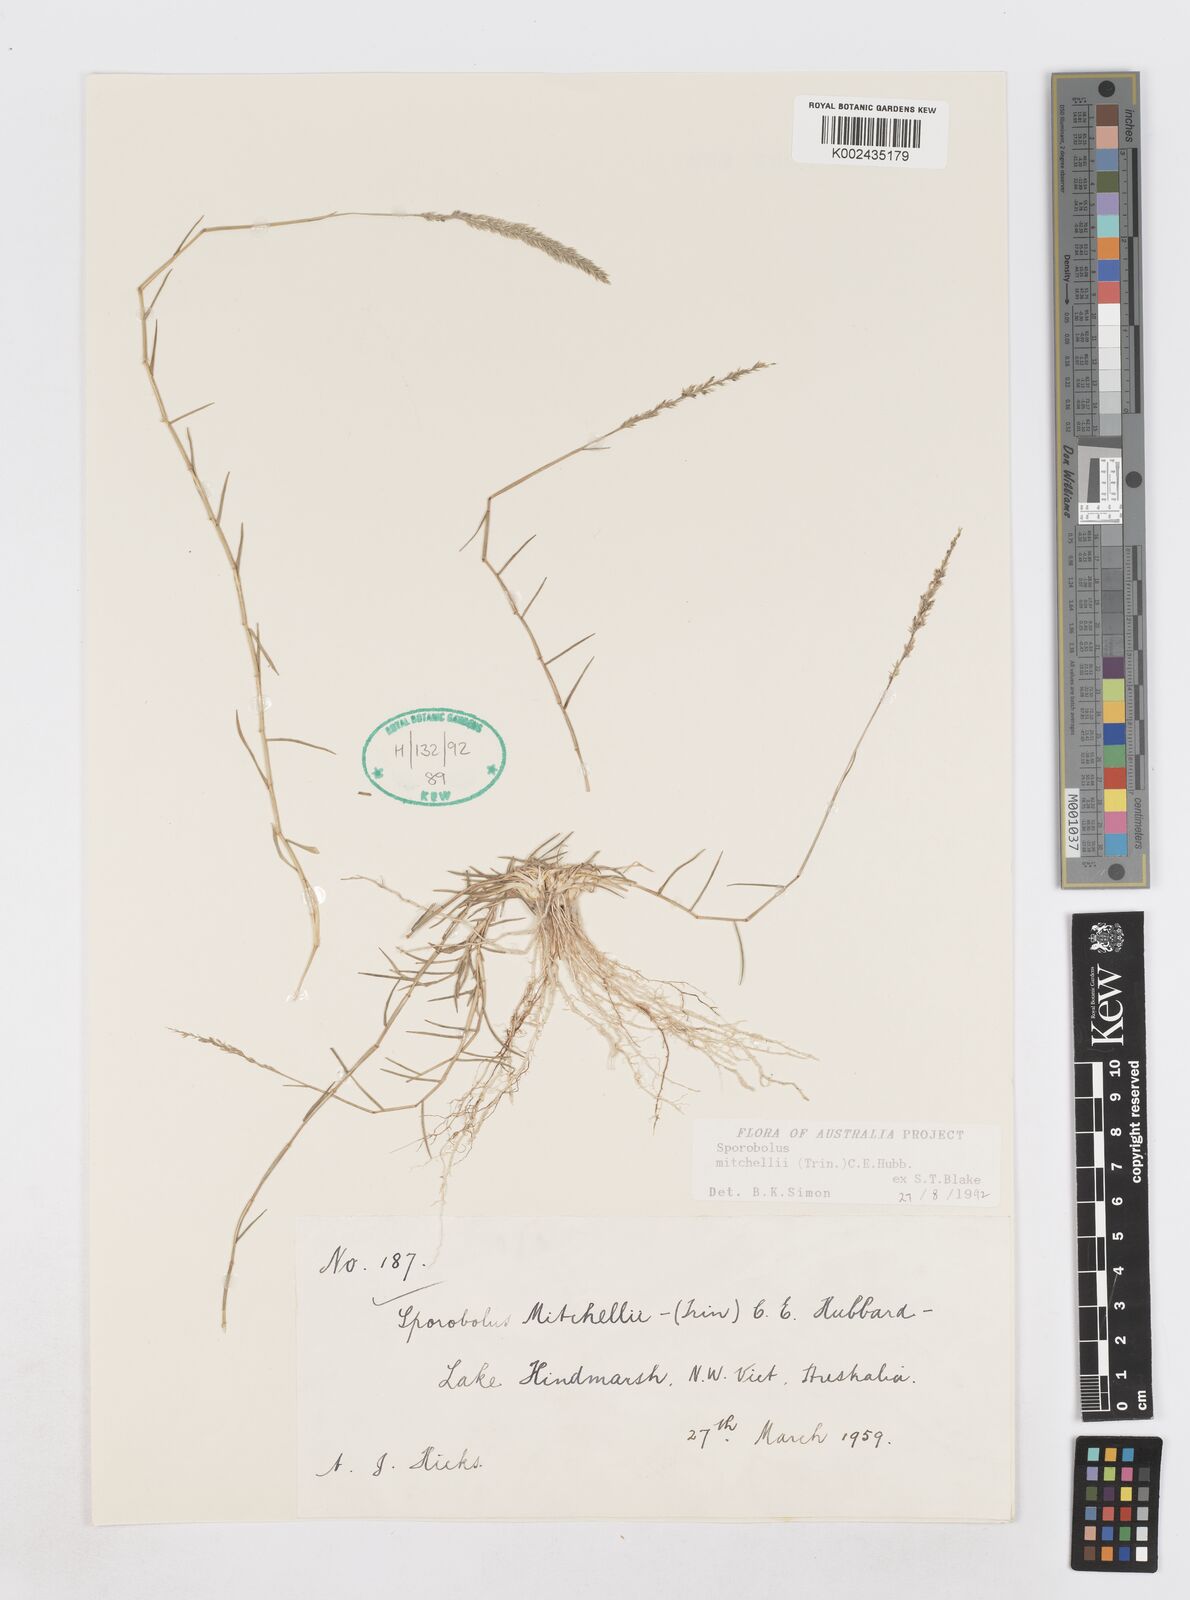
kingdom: Plantae
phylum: Tracheophyta
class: Liliopsida
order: Poales
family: Poaceae
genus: Sporobolus
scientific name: Sporobolus mitchellii
